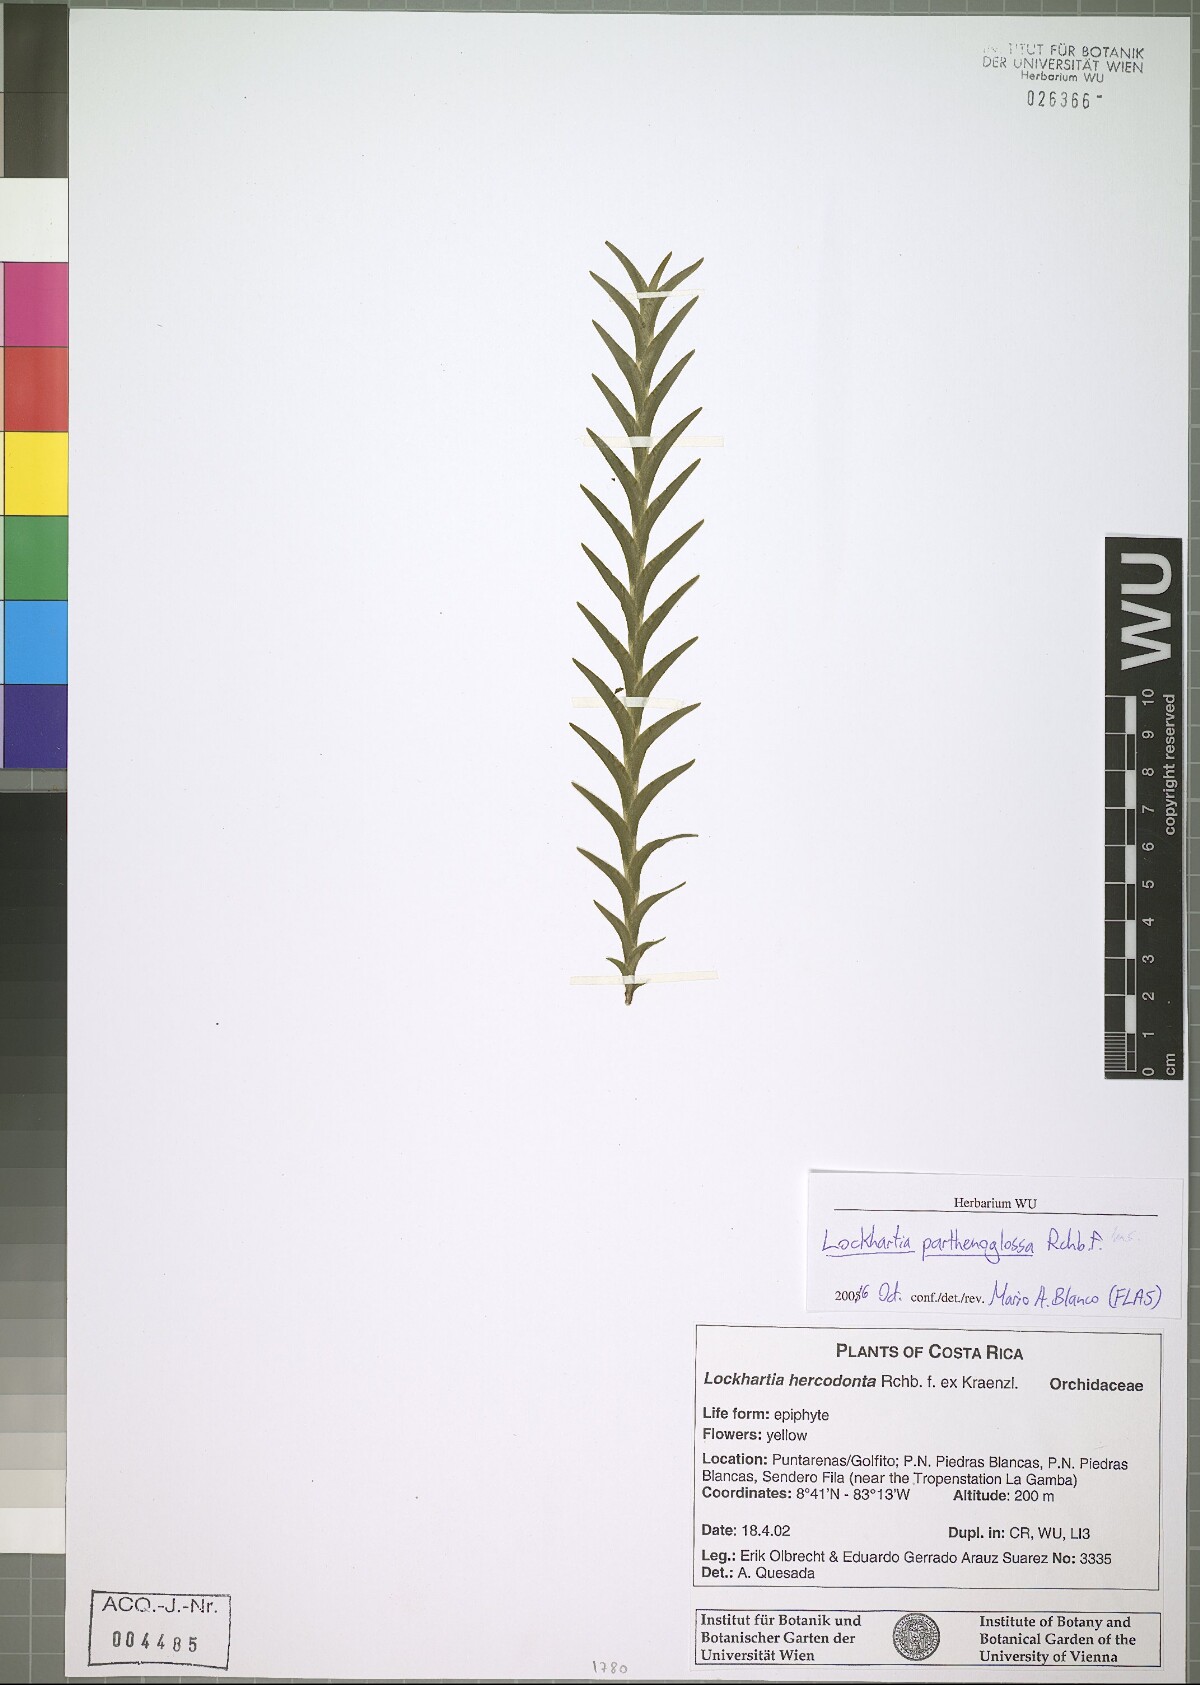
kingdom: Plantae
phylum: Tracheophyta
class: Liliopsida
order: Asparagales
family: Orchidaceae
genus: Lockhartia
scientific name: Lockhartia parthenoglossa
